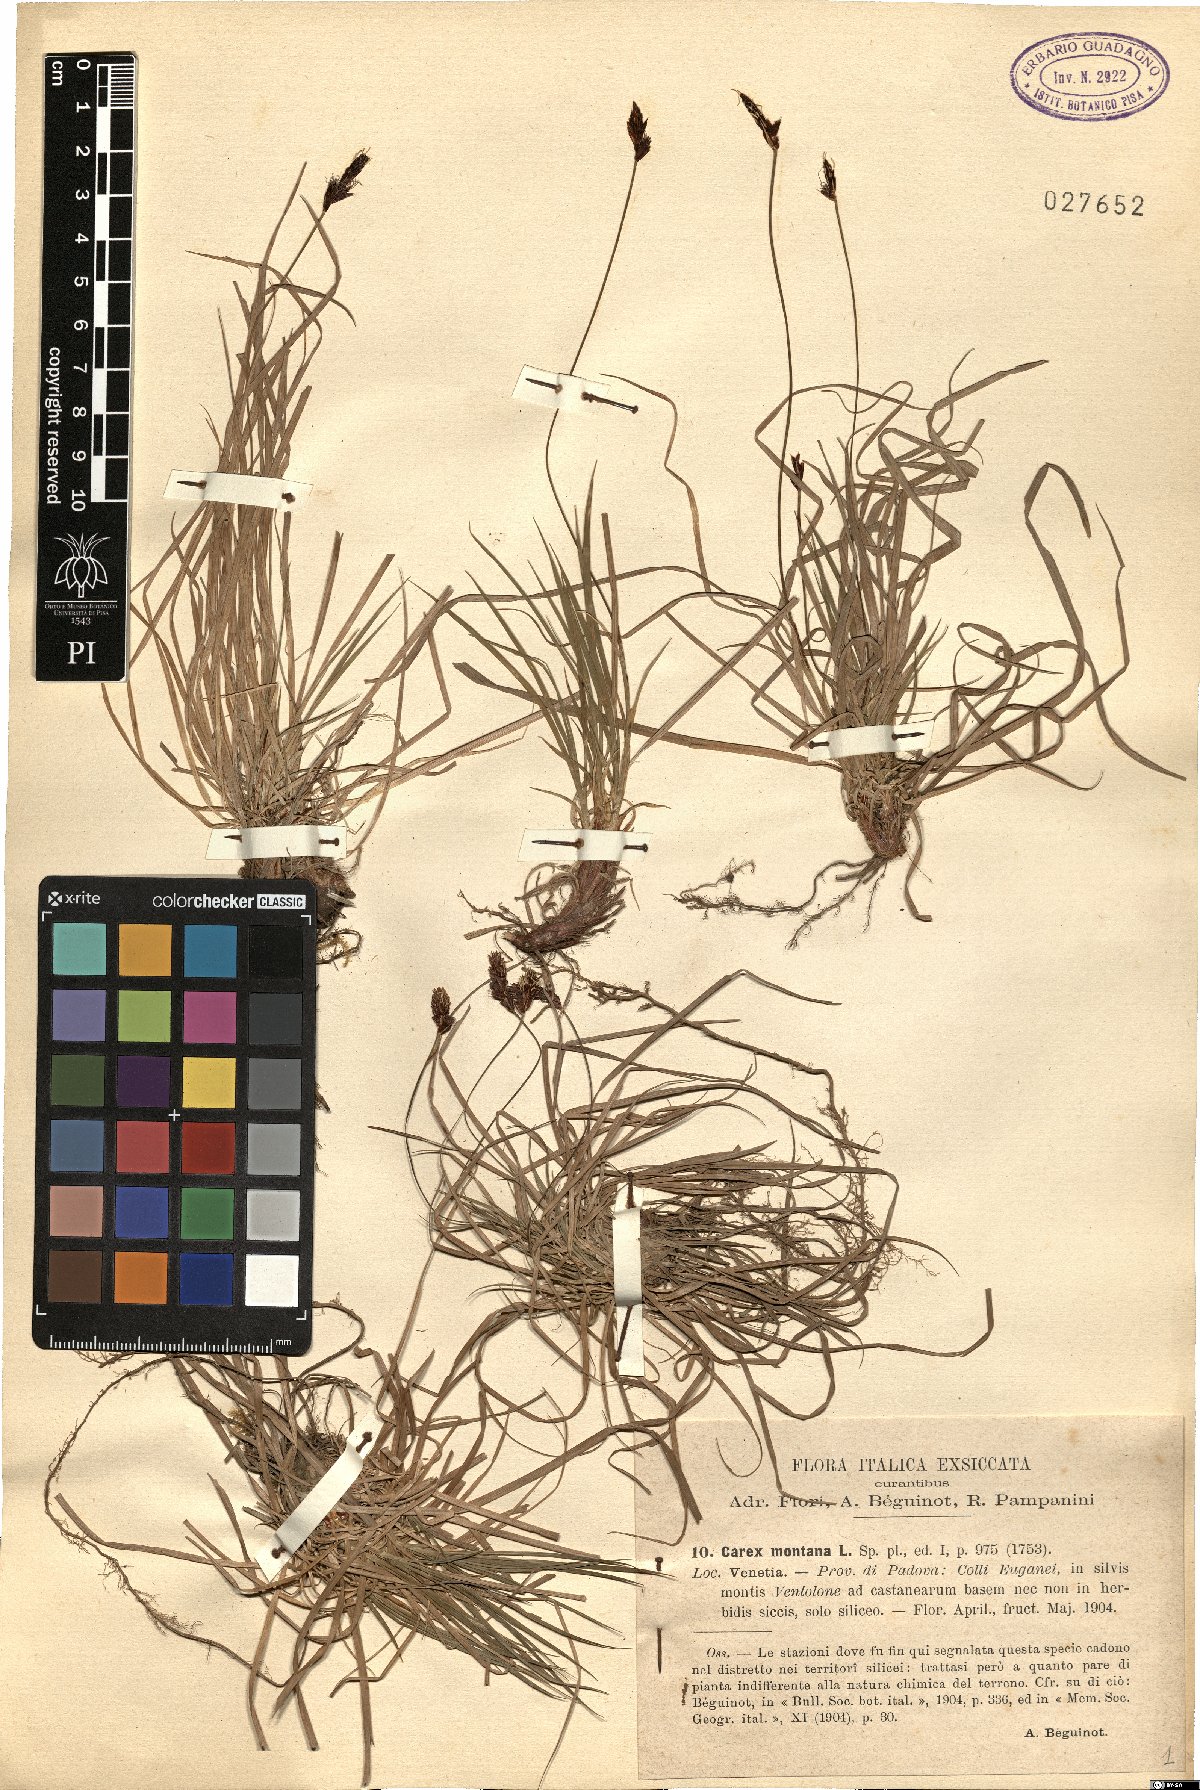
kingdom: Plantae
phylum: Tracheophyta
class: Liliopsida
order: Poales
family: Cyperaceae
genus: Carex
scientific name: Carex montana
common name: Soft-leaved sedge
